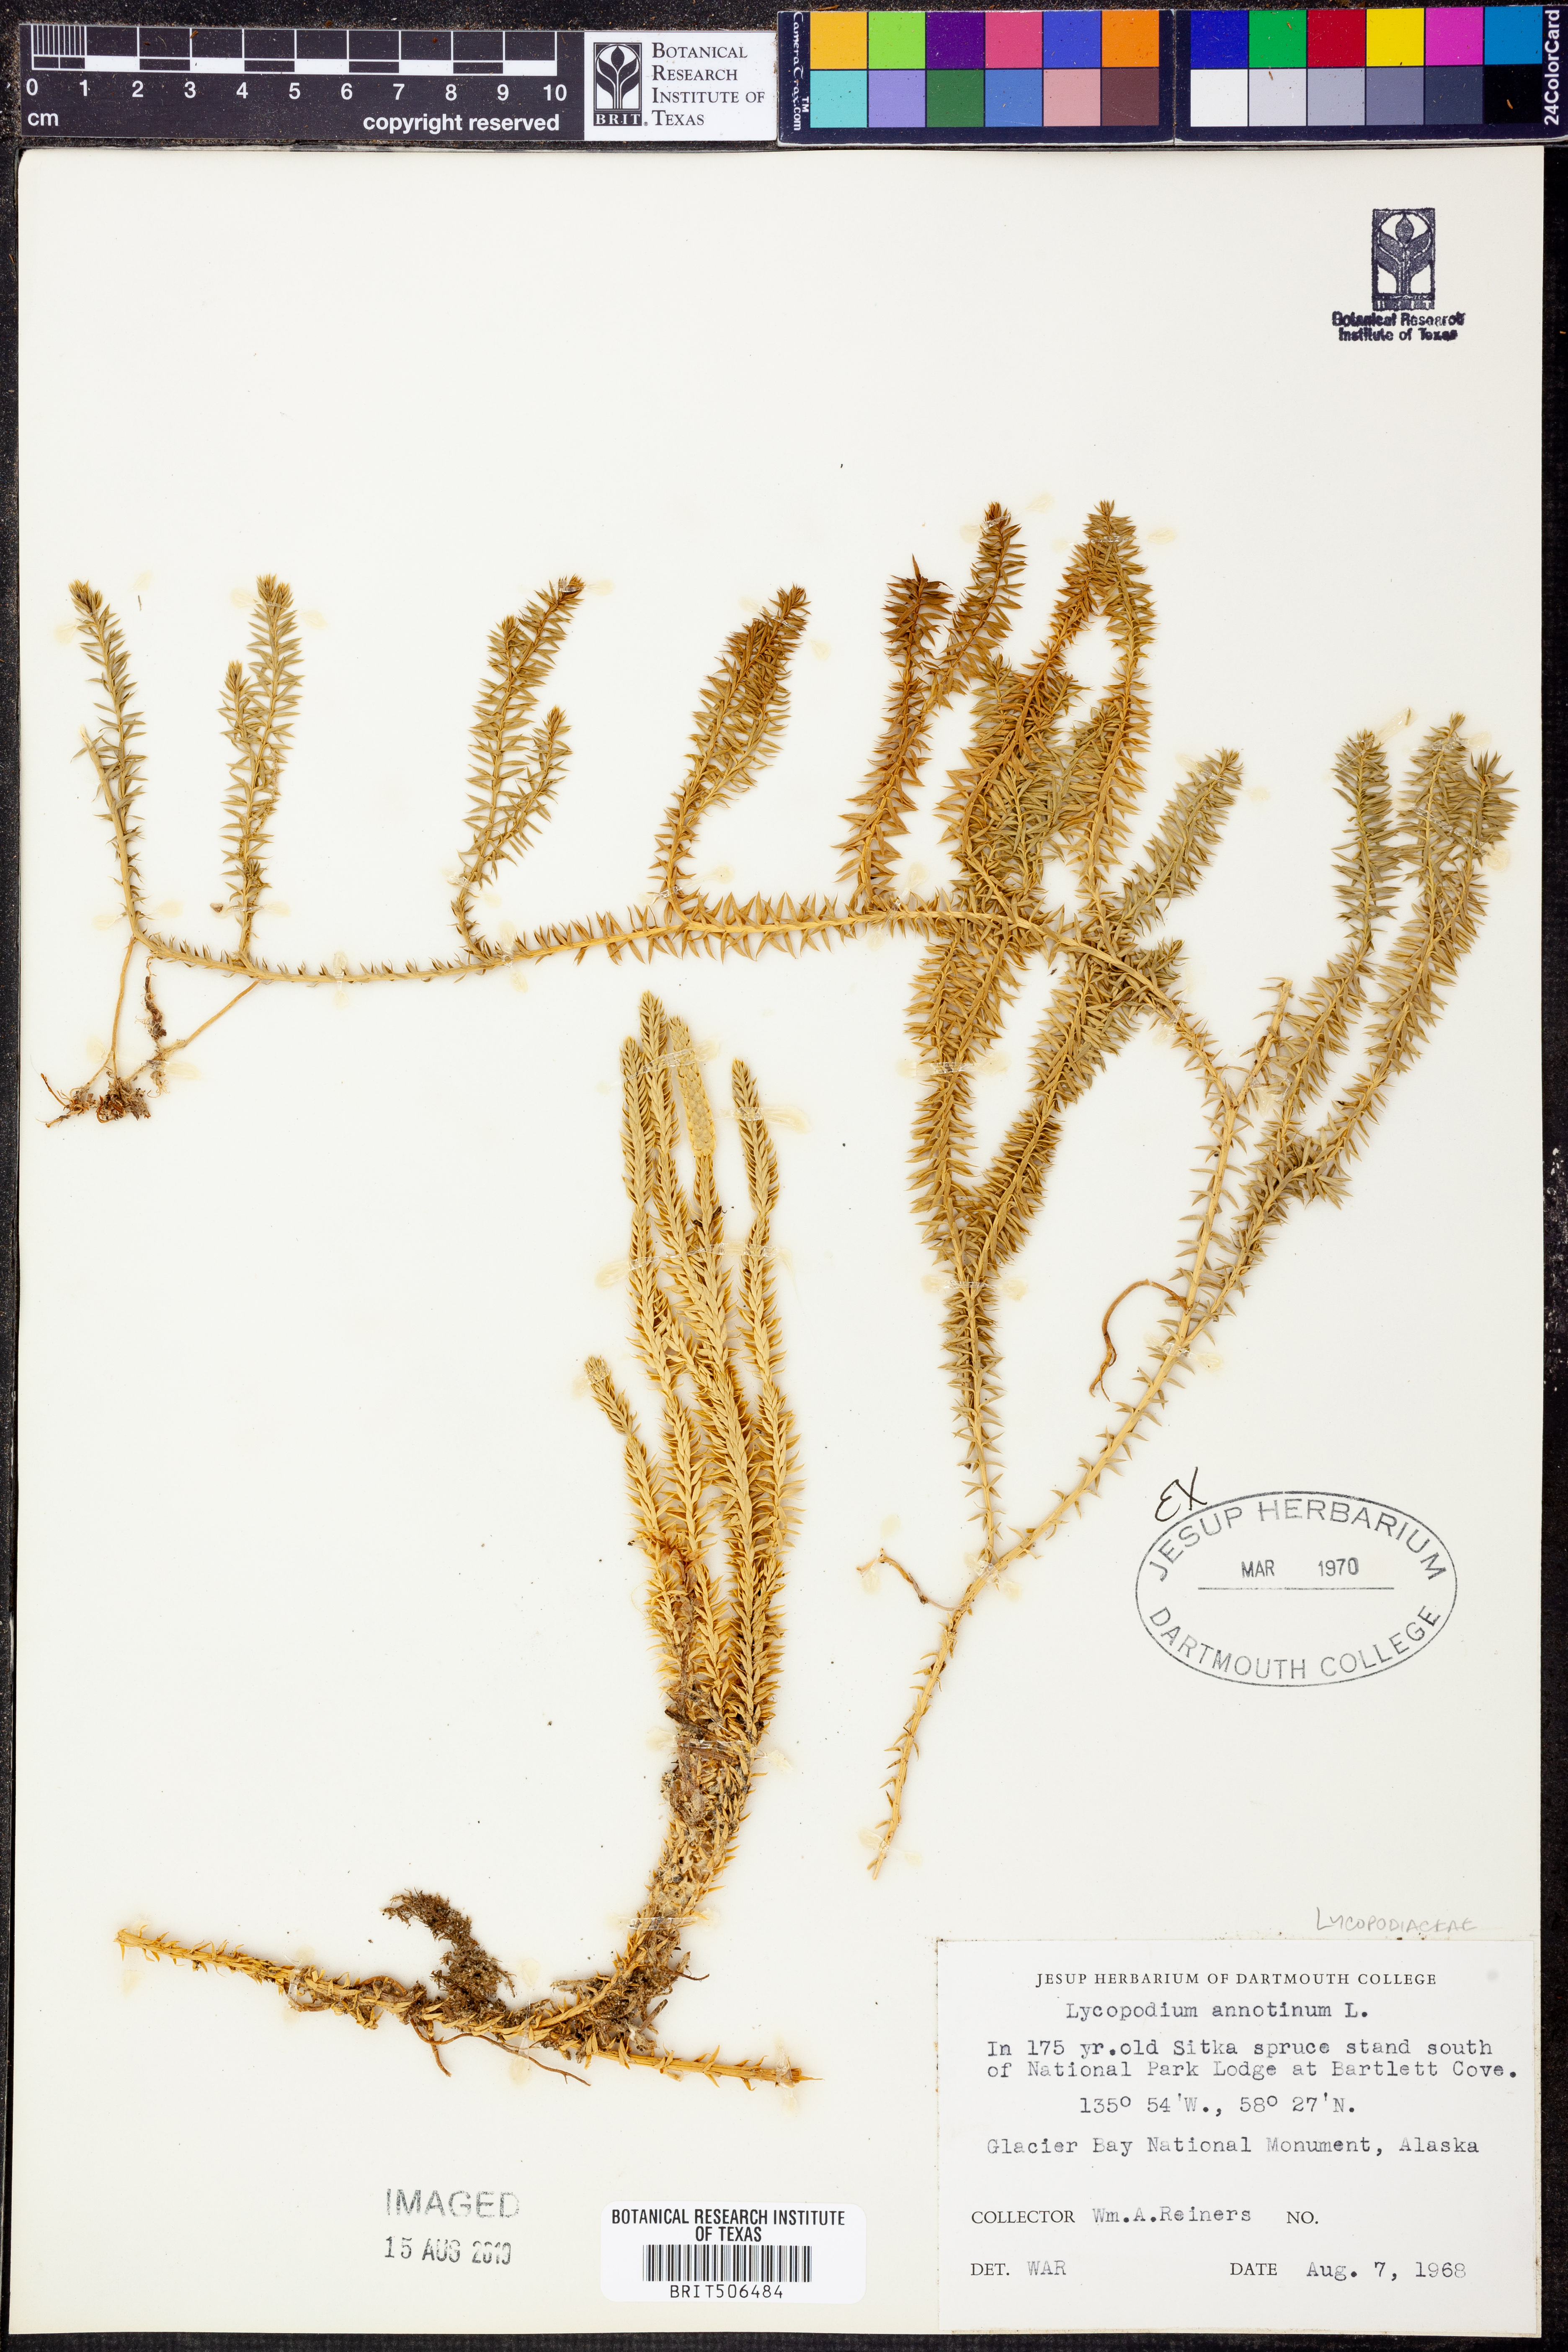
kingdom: Plantae
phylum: Tracheophyta
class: Lycopodiopsida
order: Lycopodiales
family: Lycopodiaceae
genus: Spinulum
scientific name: Spinulum annotinum
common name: Interrupted club-moss
